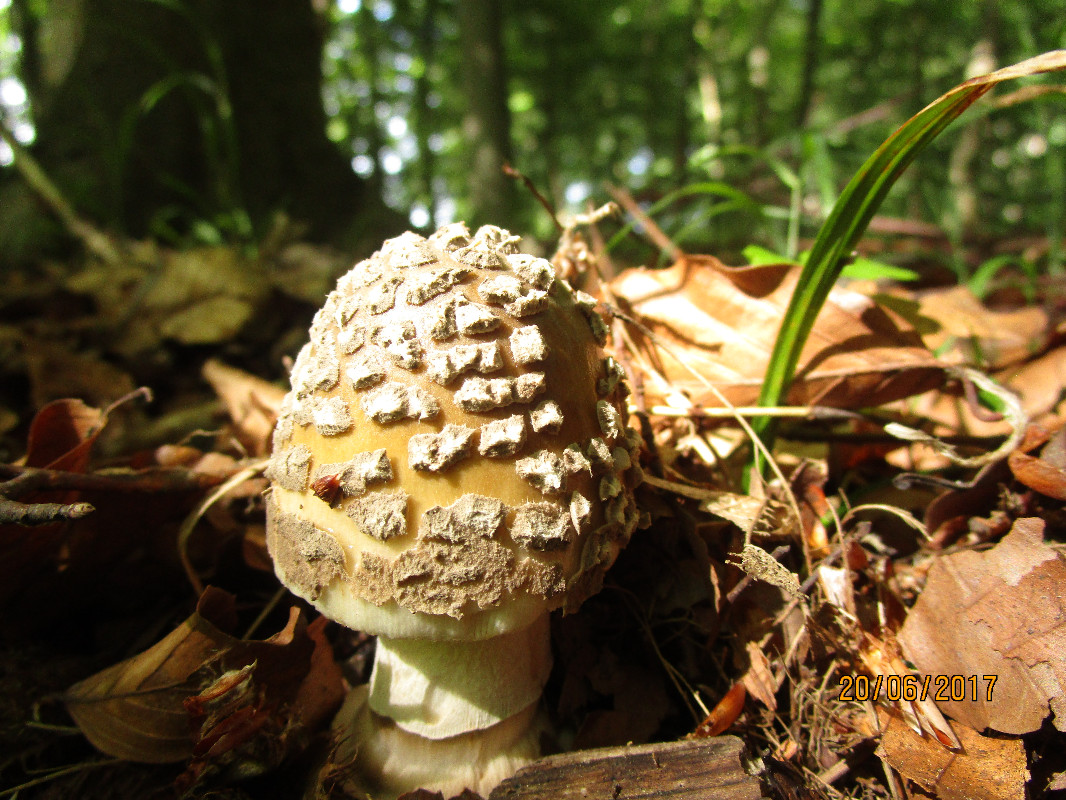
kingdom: Fungi
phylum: Basidiomycota
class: Agaricomycetes
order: Agaricales
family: Amanitaceae
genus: Amanita
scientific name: Amanita ceciliae
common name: stor kam-fluesvamp
